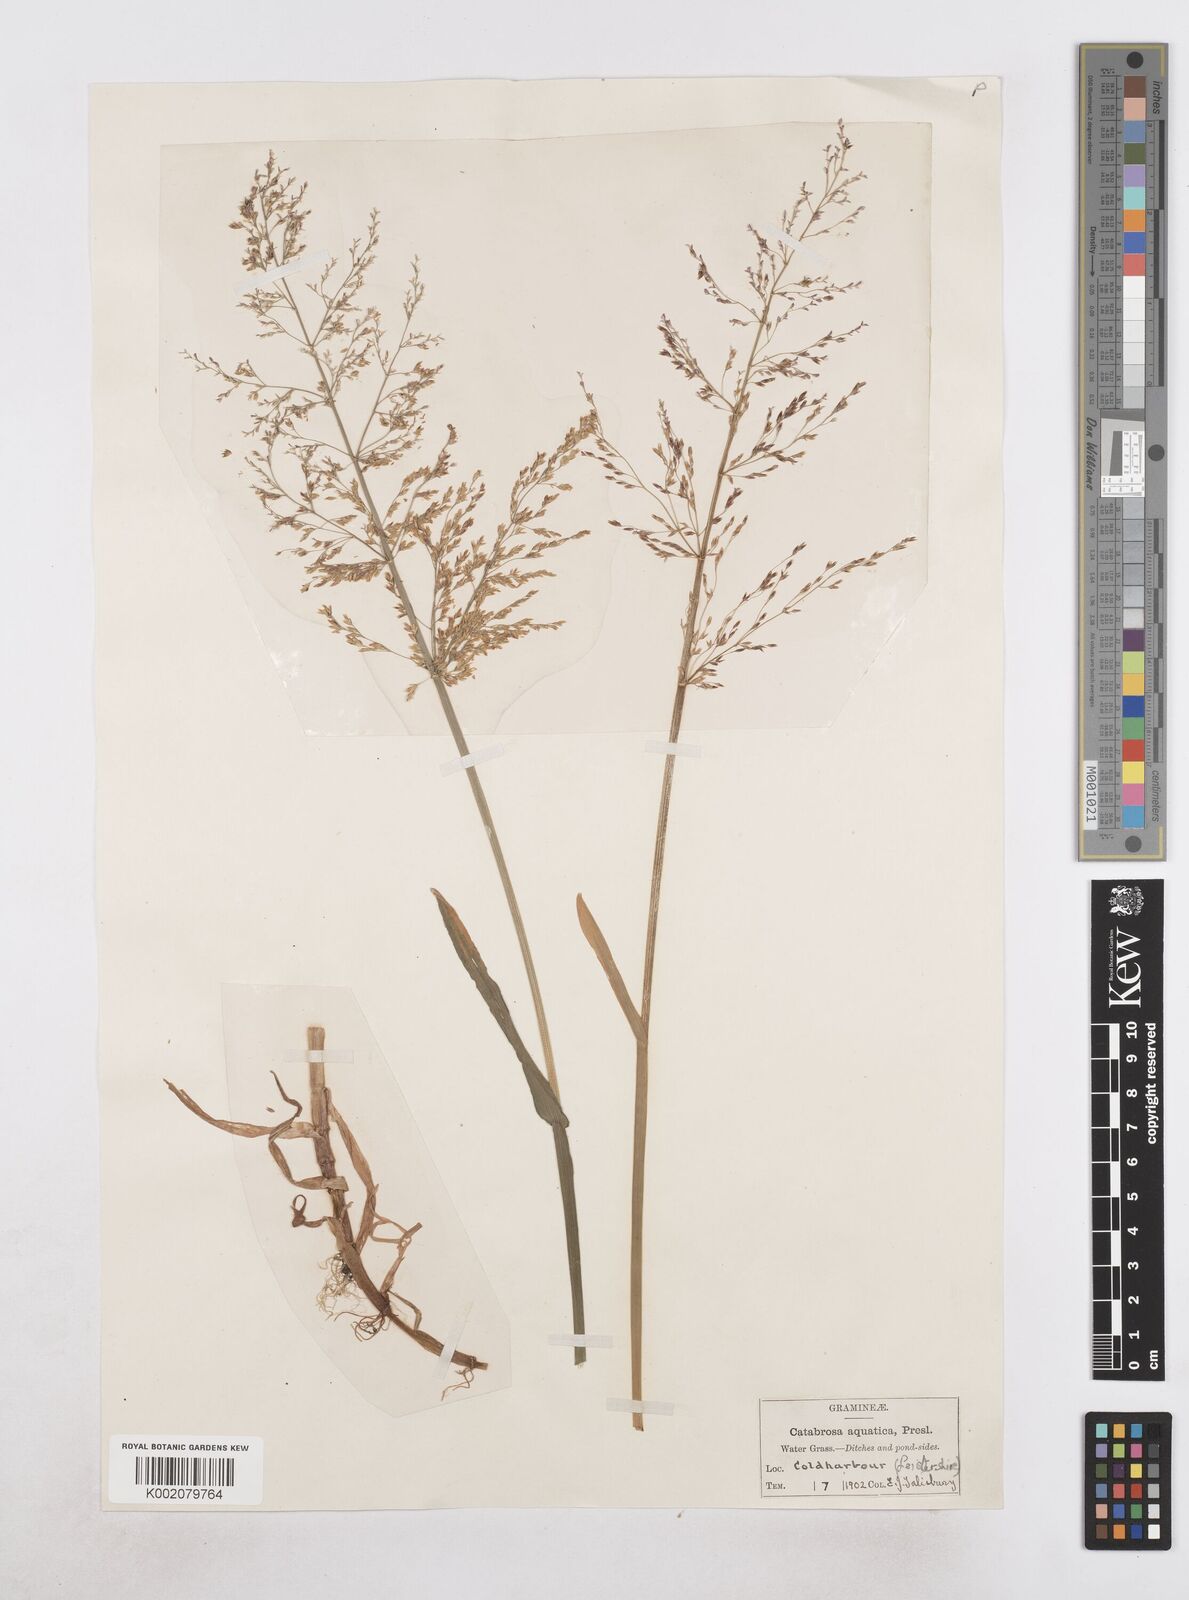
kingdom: Plantae
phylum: Tracheophyta
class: Liliopsida
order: Poales
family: Poaceae
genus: Catabrosa
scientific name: Catabrosa aquatica
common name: Whorl-grass
